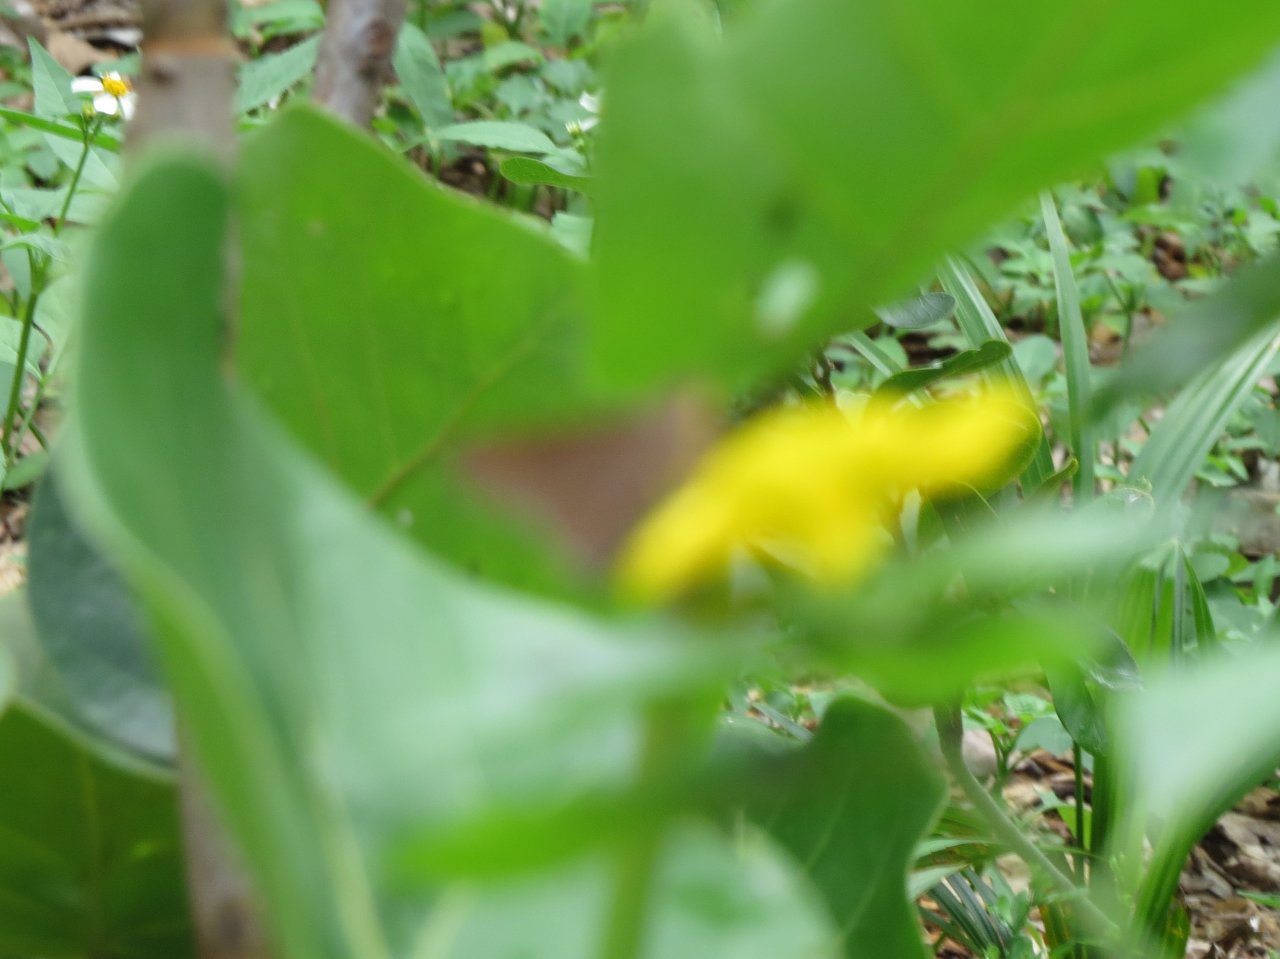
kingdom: Animalia
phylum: Arthropoda
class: Insecta
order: Lepidoptera
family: Hesperiidae
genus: Asbolis
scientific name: Asbolis capucinus
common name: Monk Skipper
